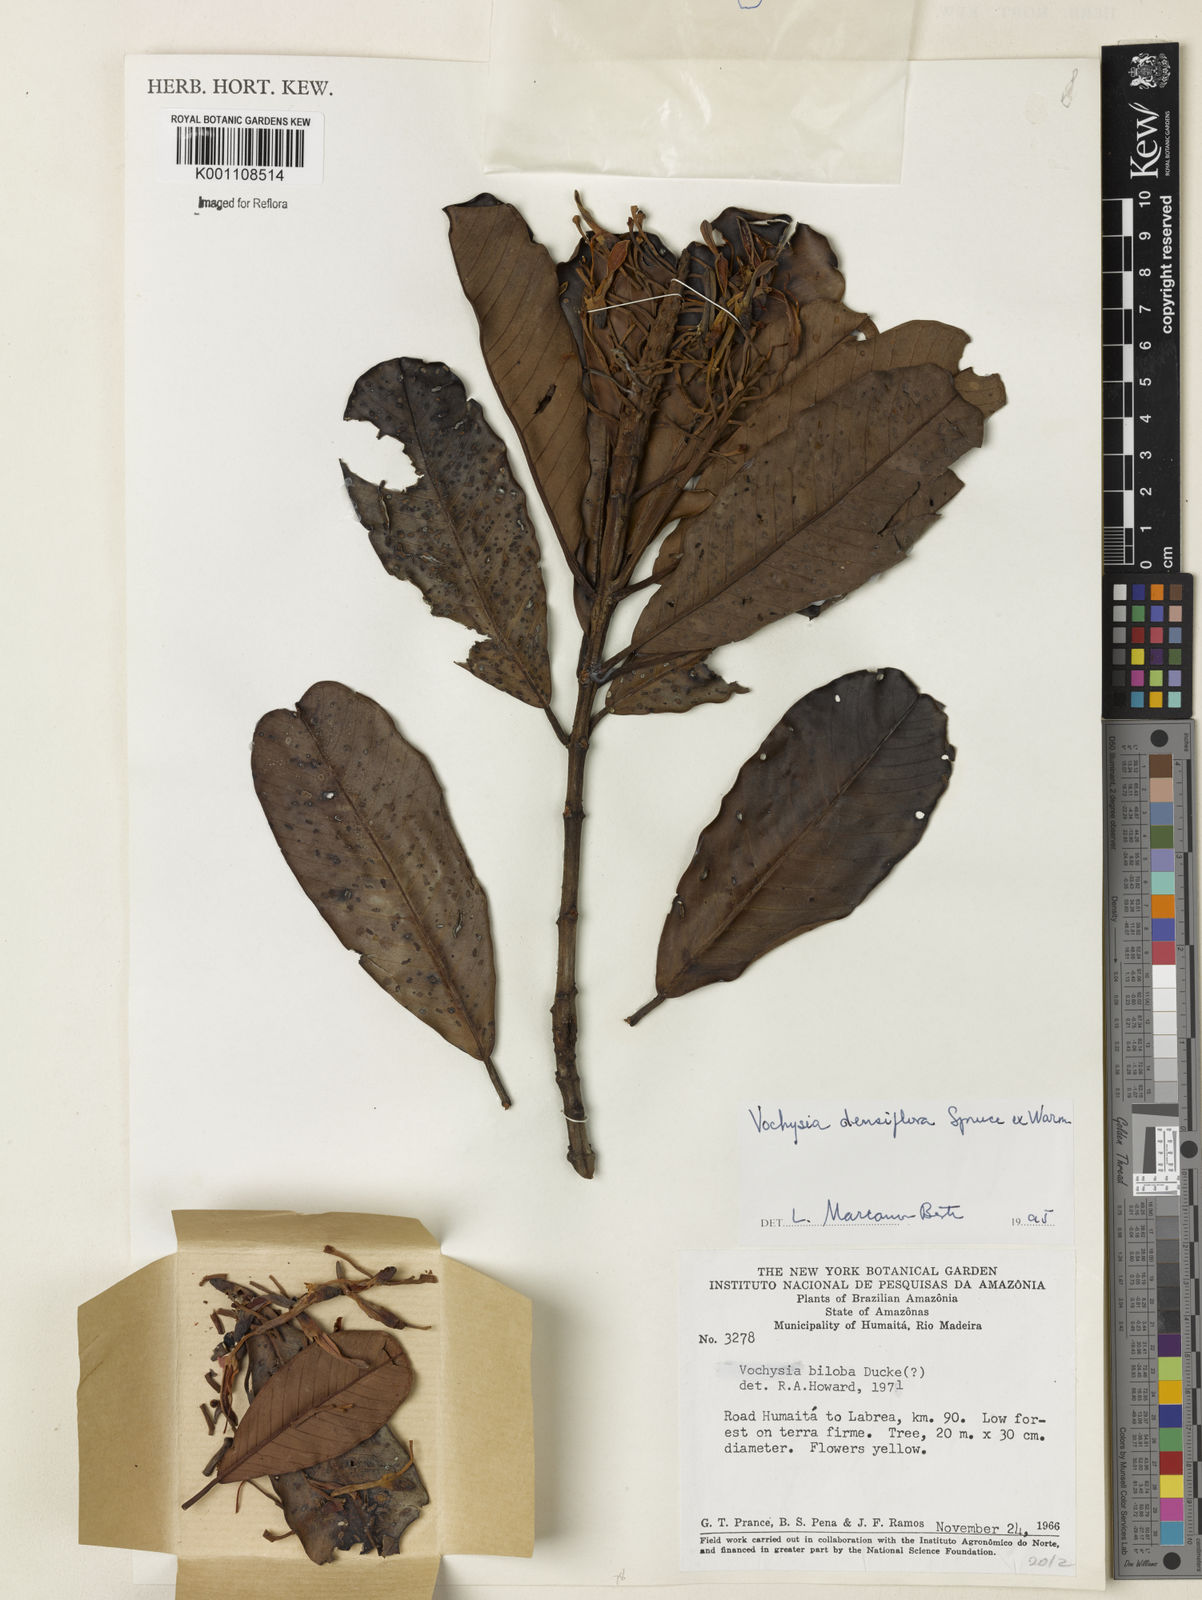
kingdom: Plantae
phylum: Tracheophyta
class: Magnoliopsida
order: Myrtales
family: Vochysiaceae
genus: Vochysia
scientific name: Vochysia
